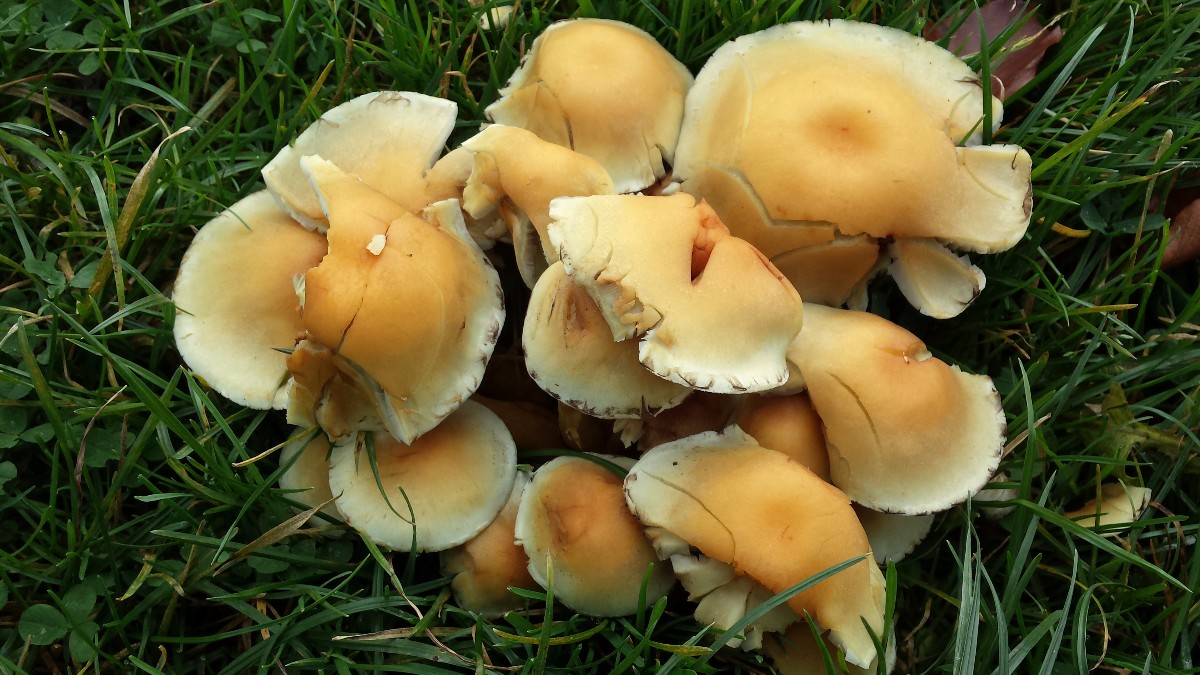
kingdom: Fungi
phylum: Basidiomycota
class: Agaricomycetes
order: Agaricales
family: Strophariaceae
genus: Hypholoma
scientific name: Hypholoma fasciculare
